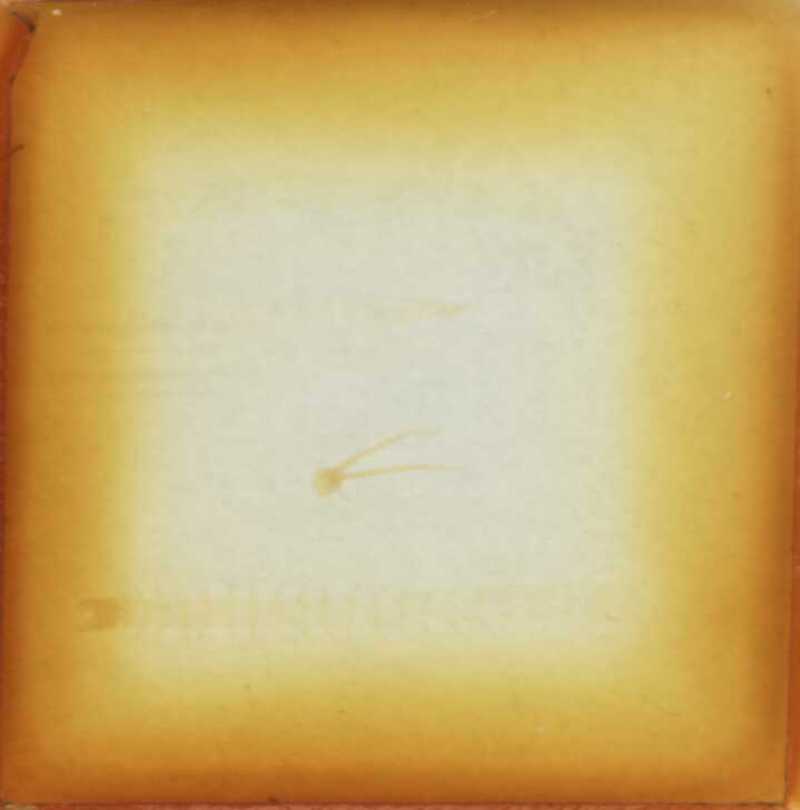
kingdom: Animalia
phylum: Arthropoda
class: Chilopoda
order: Geophilomorpha
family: Geophilidae
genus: Geophilus
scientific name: Geophilus flavus
